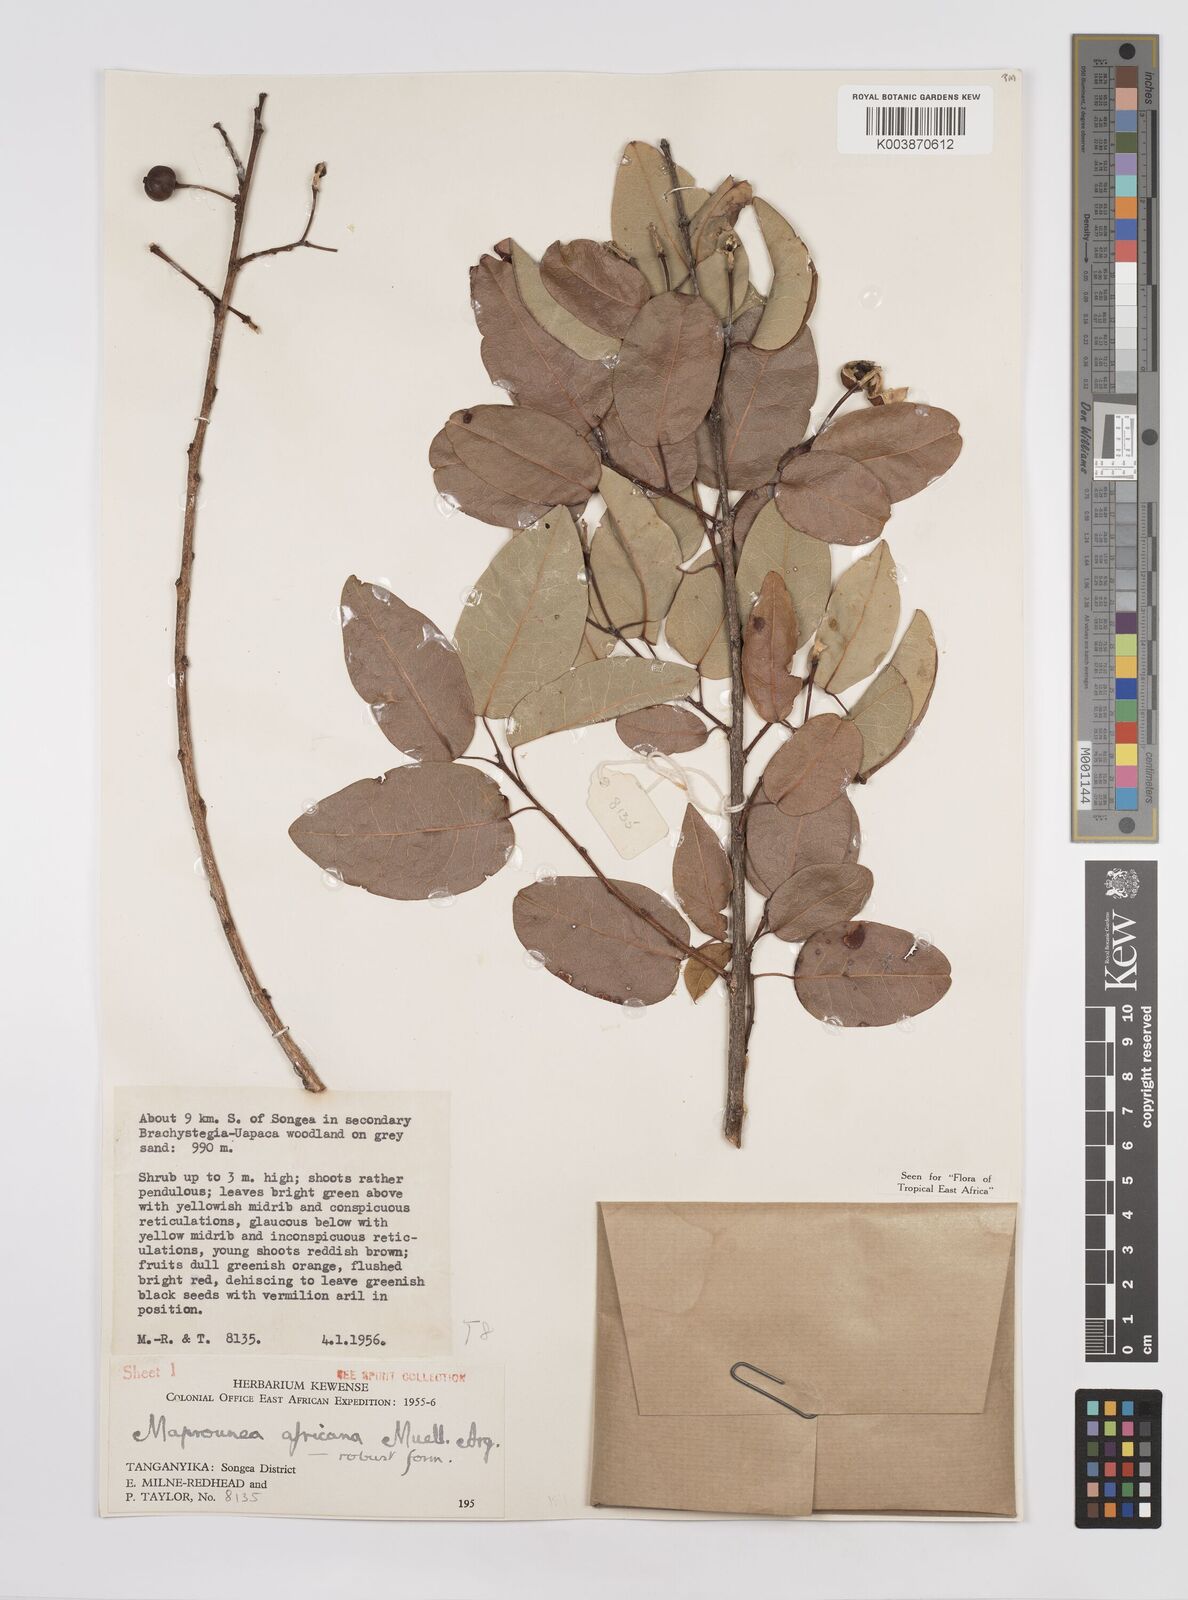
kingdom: Plantae
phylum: Tracheophyta
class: Magnoliopsida
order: Malpighiales
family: Euphorbiaceae
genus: Maprounea
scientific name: Maprounea africana
